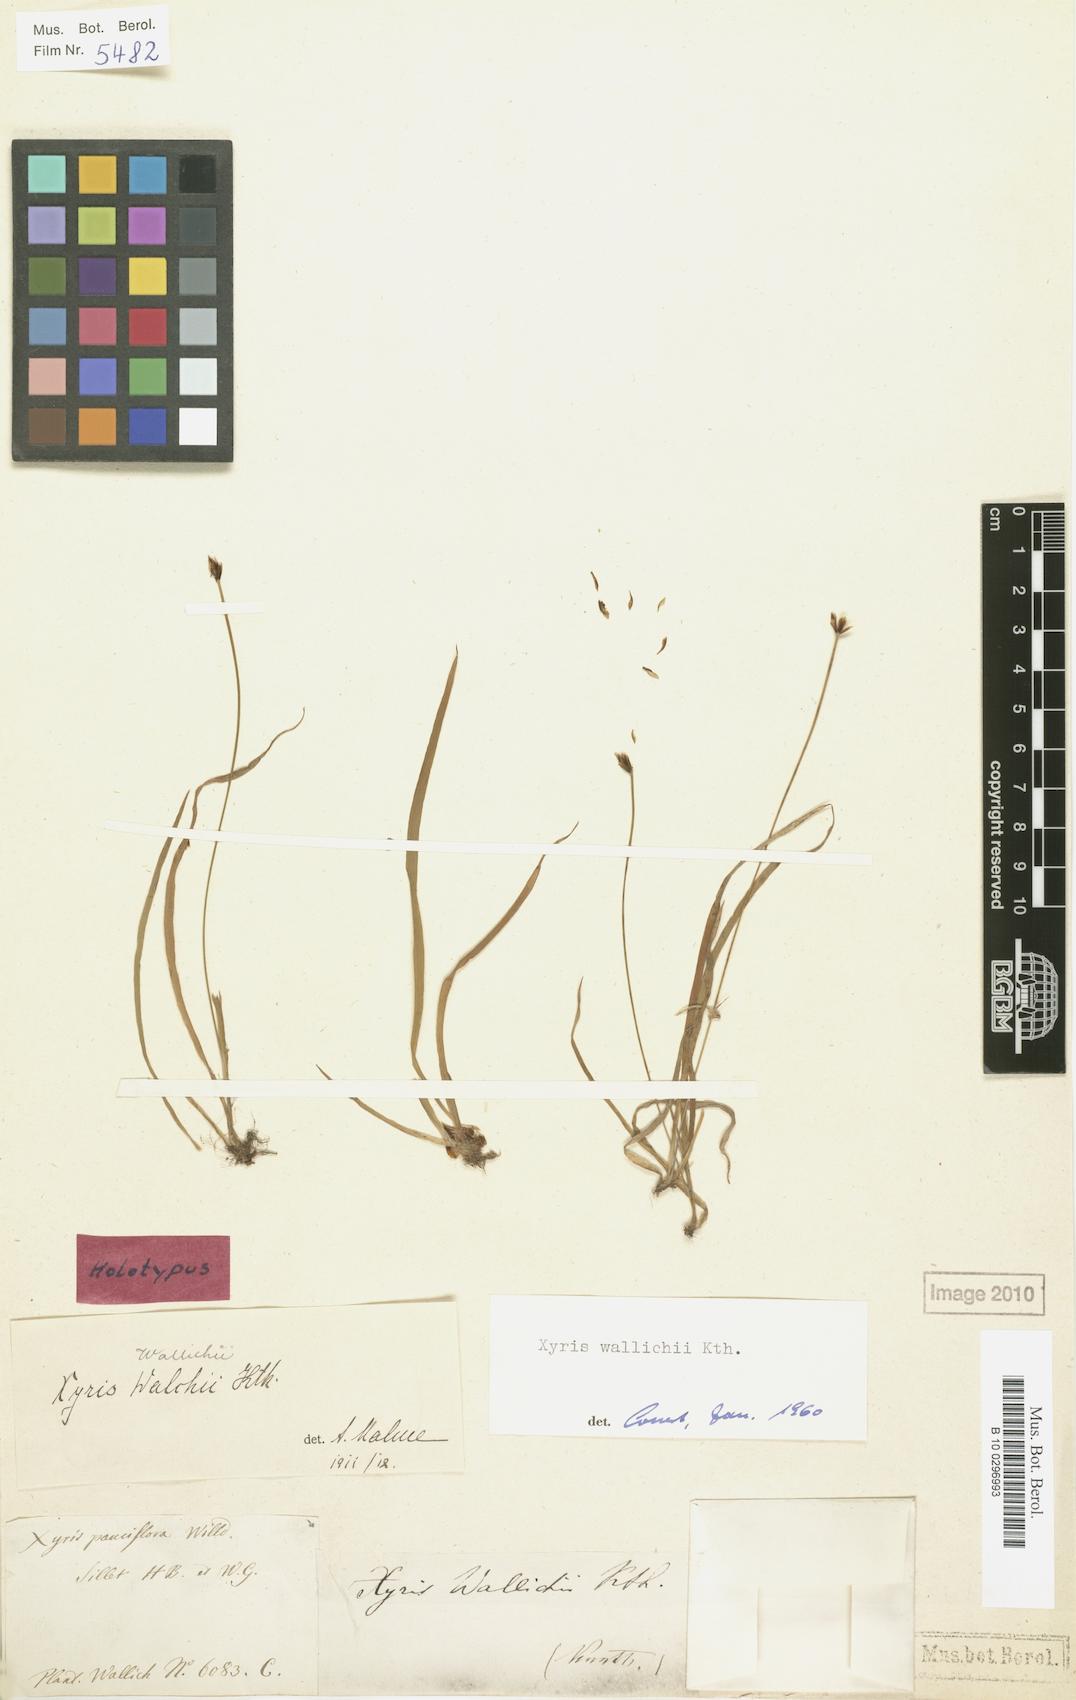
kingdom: Plantae
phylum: Tracheophyta
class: Liliopsida
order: Poales
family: Xyridaceae
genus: Xyris
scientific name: Xyris wallichii
